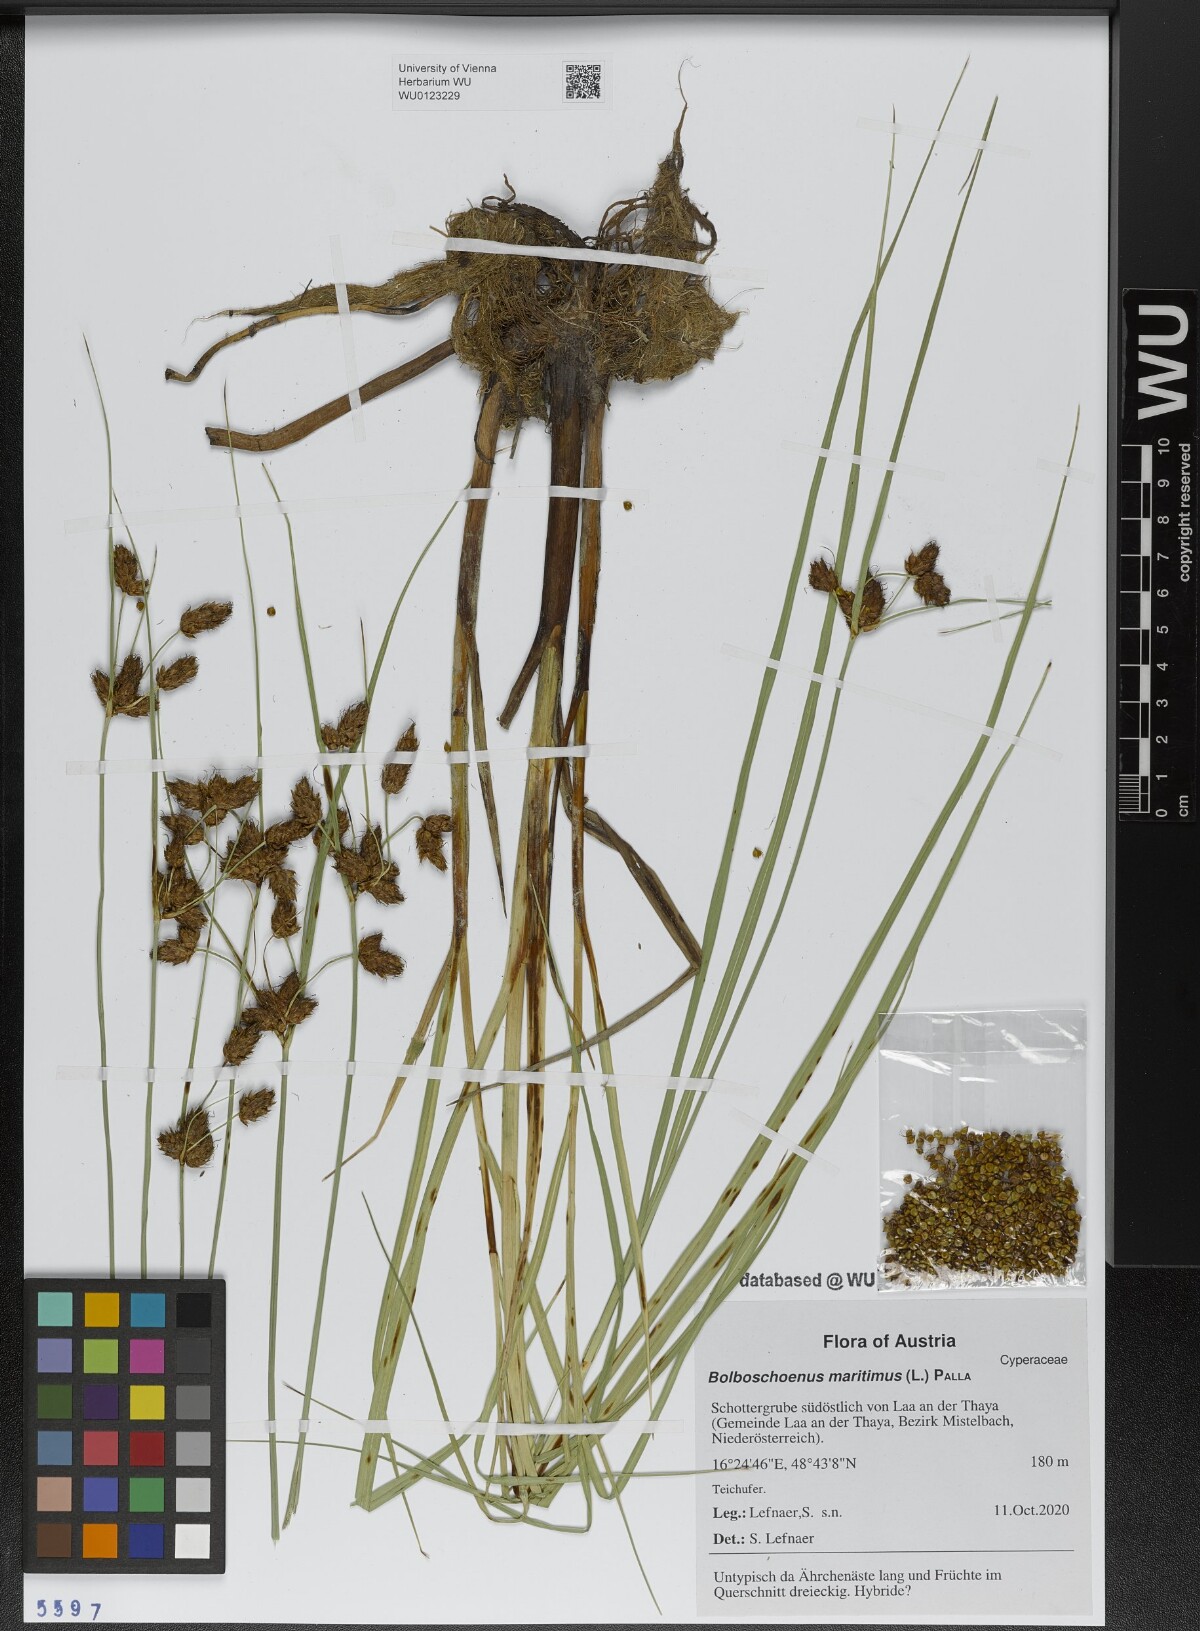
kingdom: Plantae
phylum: Tracheophyta
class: Liliopsida
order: Poales
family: Cyperaceae
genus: Bolboschoenus
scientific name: Bolboschoenus maritimus
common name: Sea club-rush
